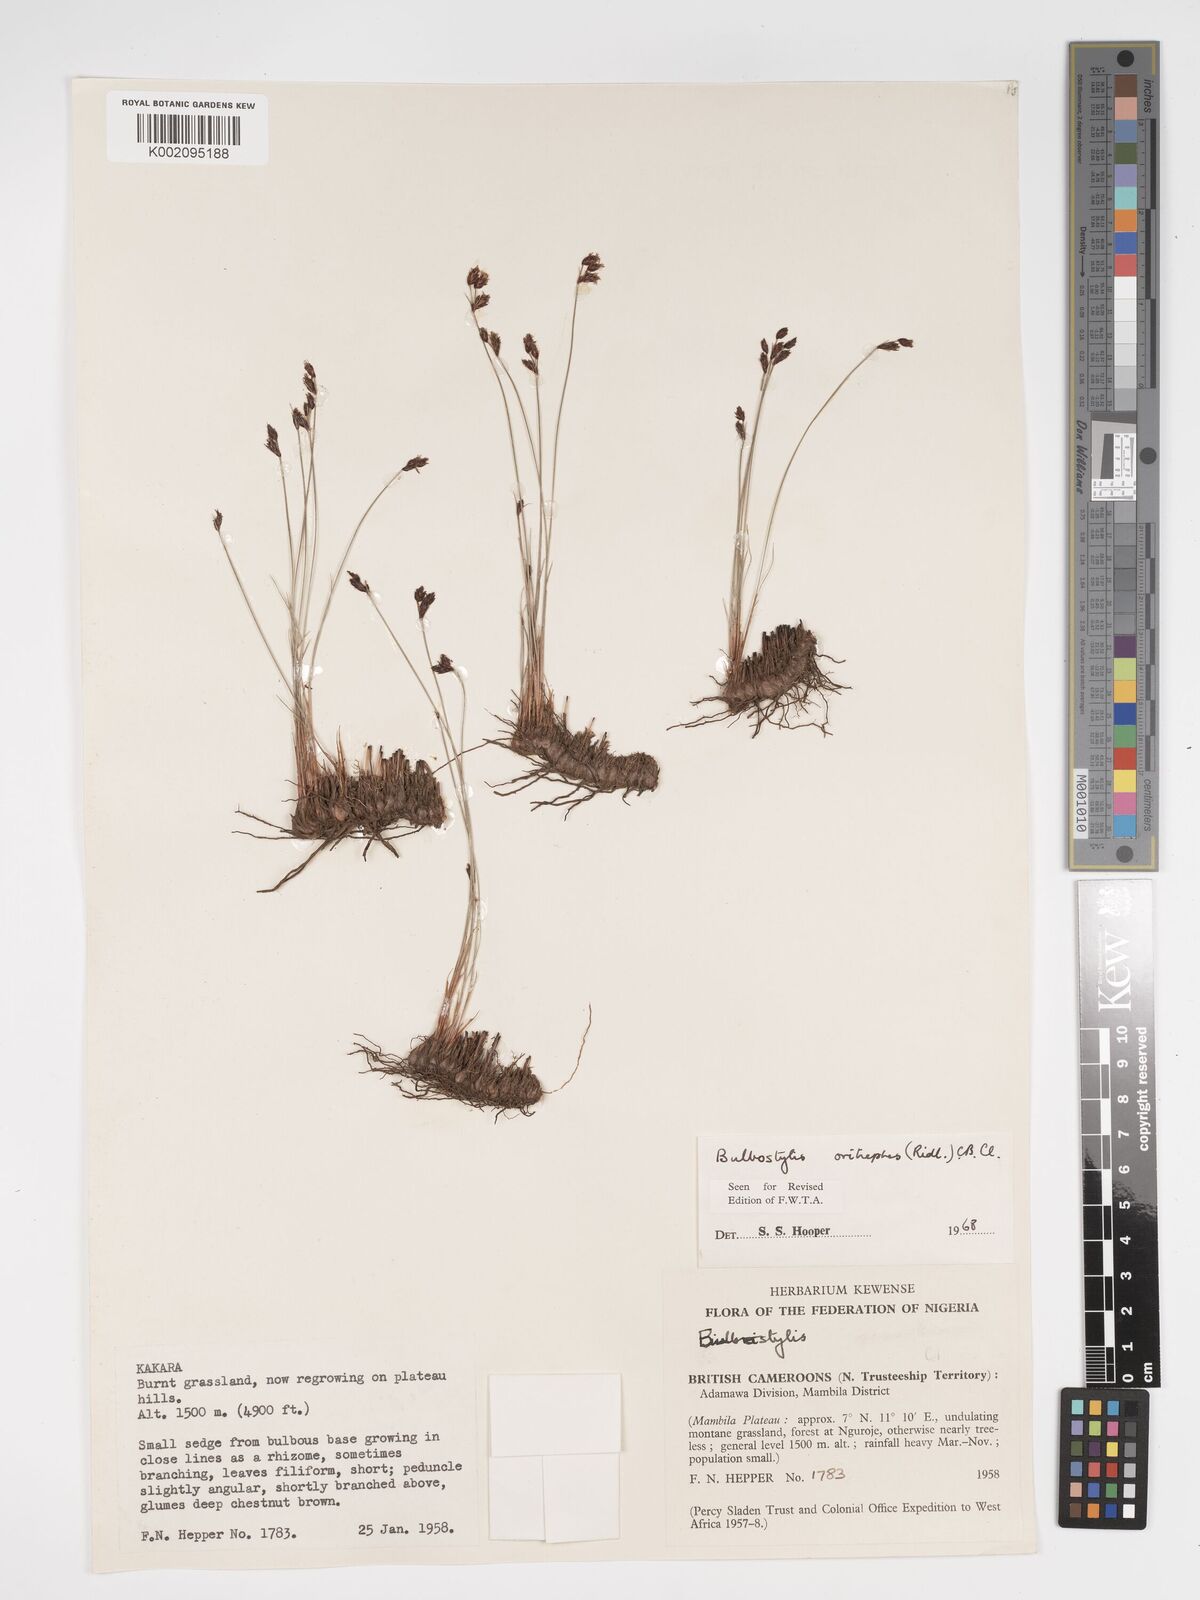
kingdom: Plantae
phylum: Tracheophyta
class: Liliopsida
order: Poales
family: Cyperaceae
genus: Bulbostylis
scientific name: Bulbostylis oritrephes
